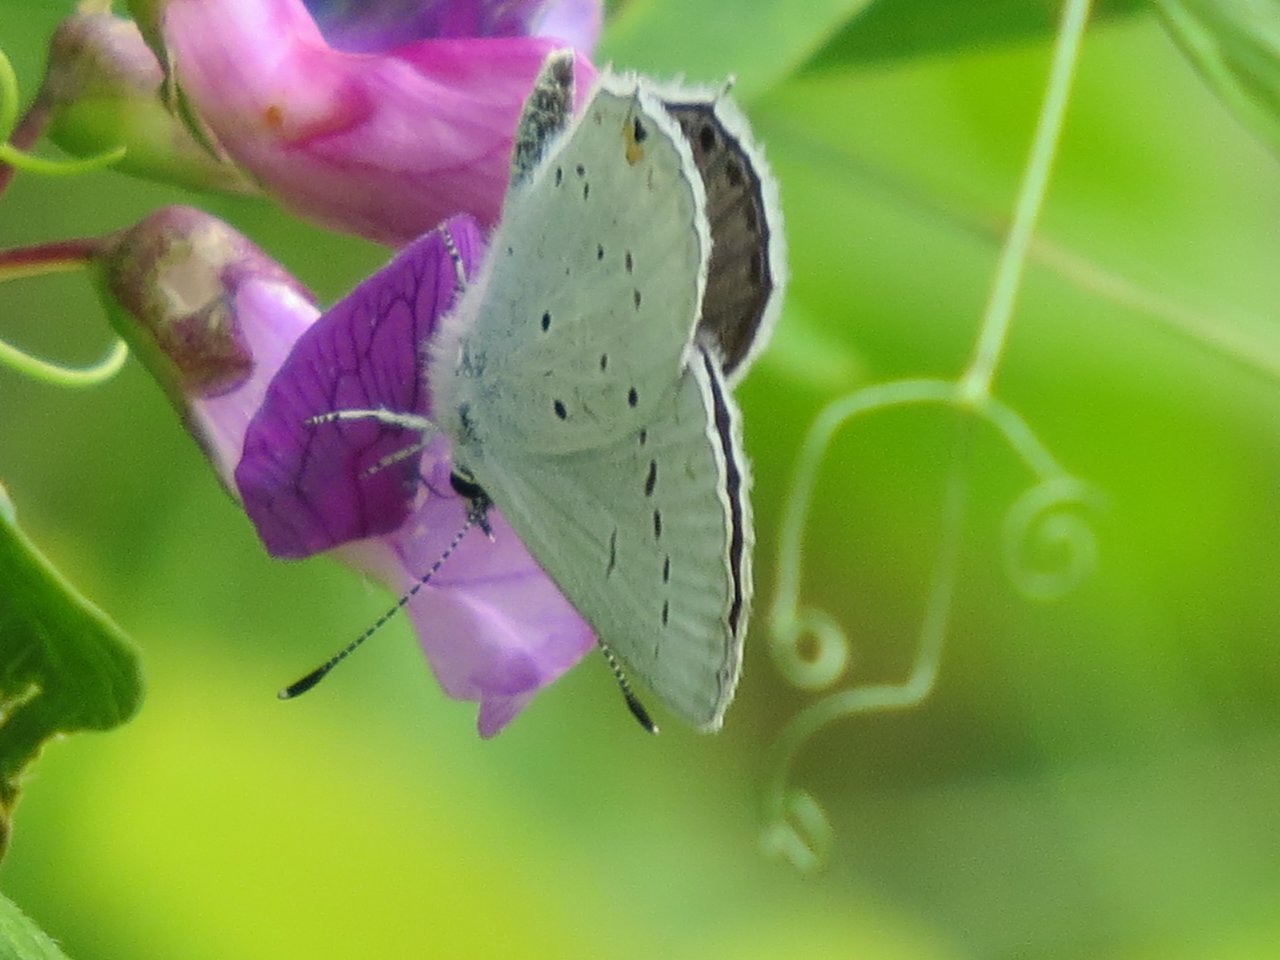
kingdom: Animalia
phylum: Arthropoda
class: Insecta
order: Lepidoptera
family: Lycaenidae
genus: Elkalyce
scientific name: Elkalyce amyntula
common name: Western Tailed-Blue
